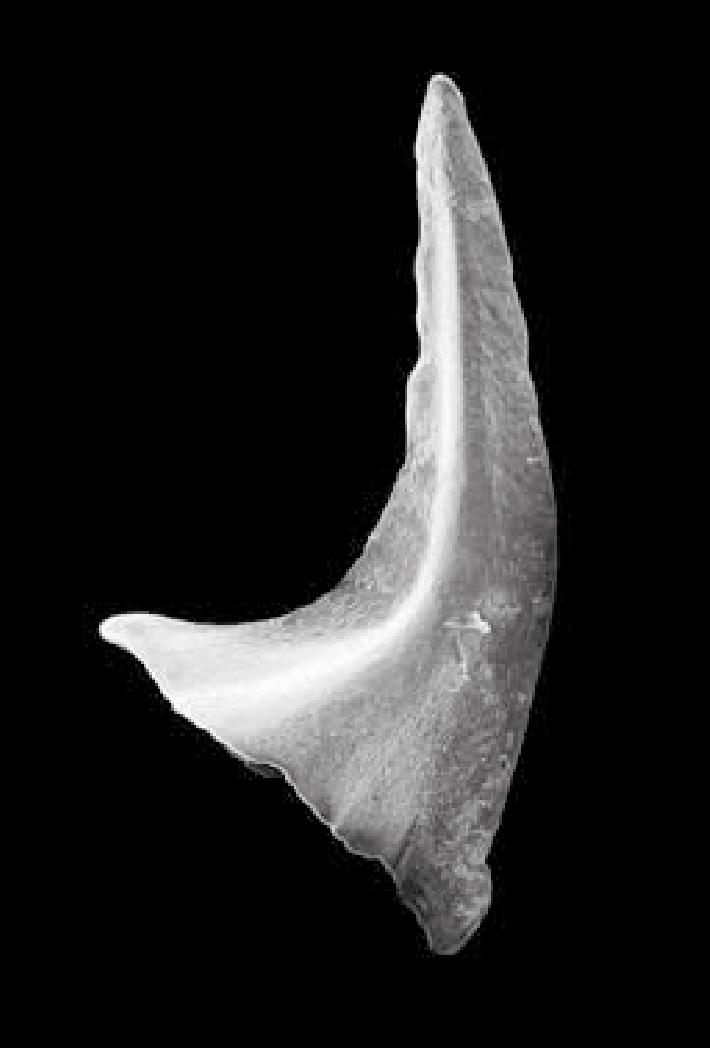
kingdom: Animalia
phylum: Chordata
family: Acodontidae
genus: Tripodus
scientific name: Tripodus
